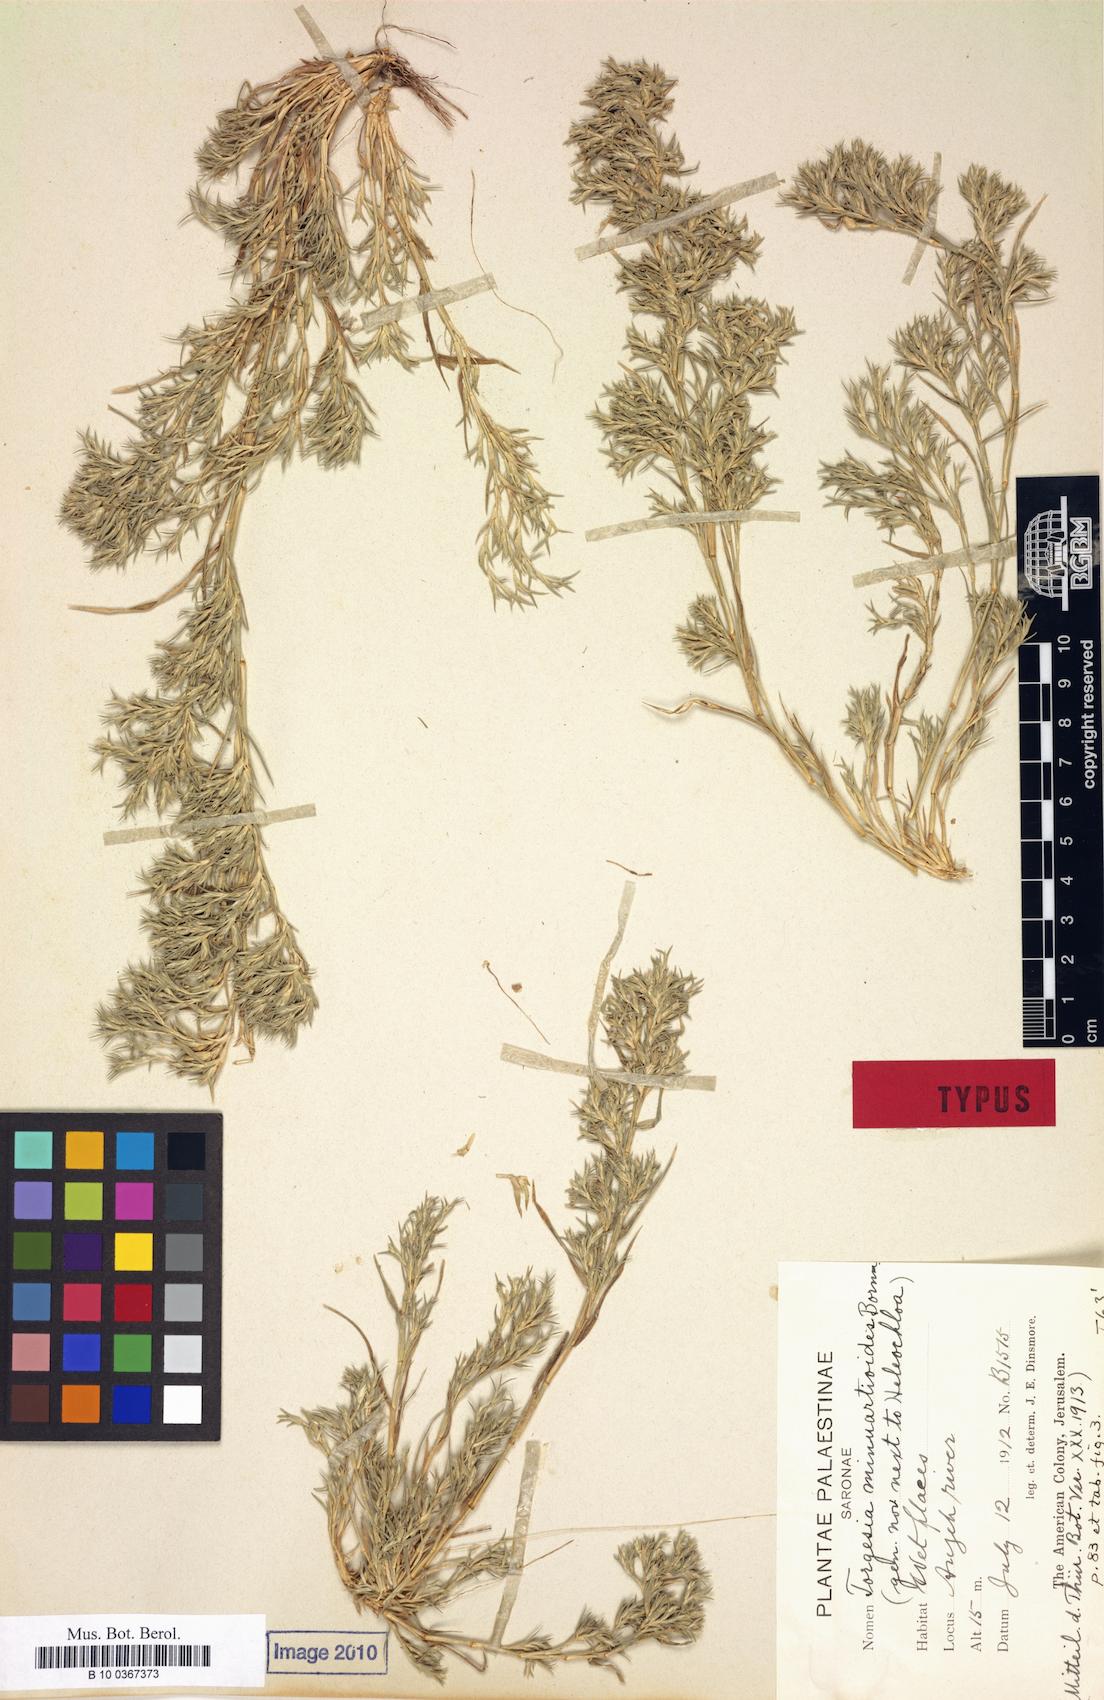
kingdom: Plantae
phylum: Tracheophyta
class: Liliopsida
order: Poales
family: Poaceae
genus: Sporobolus
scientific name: Sporobolus minuartioides
